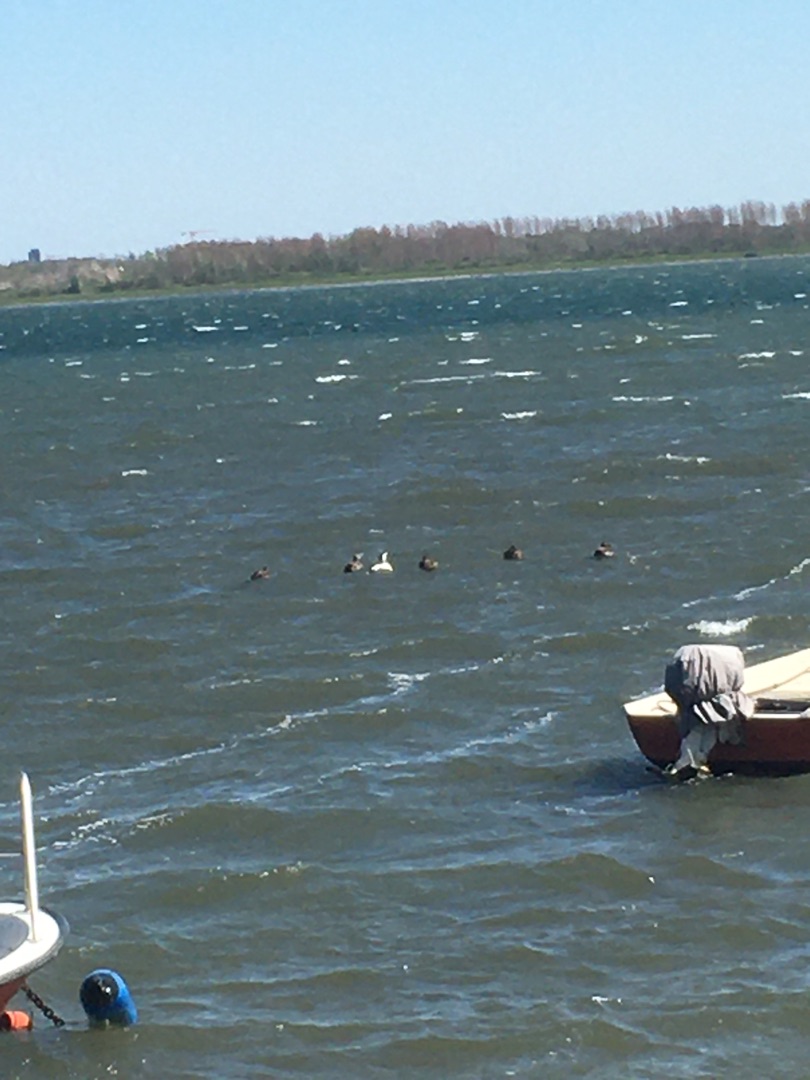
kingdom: Animalia
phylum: Chordata
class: Aves
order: Anseriformes
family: Anatidae
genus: Somateria
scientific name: Somateria mollissima
